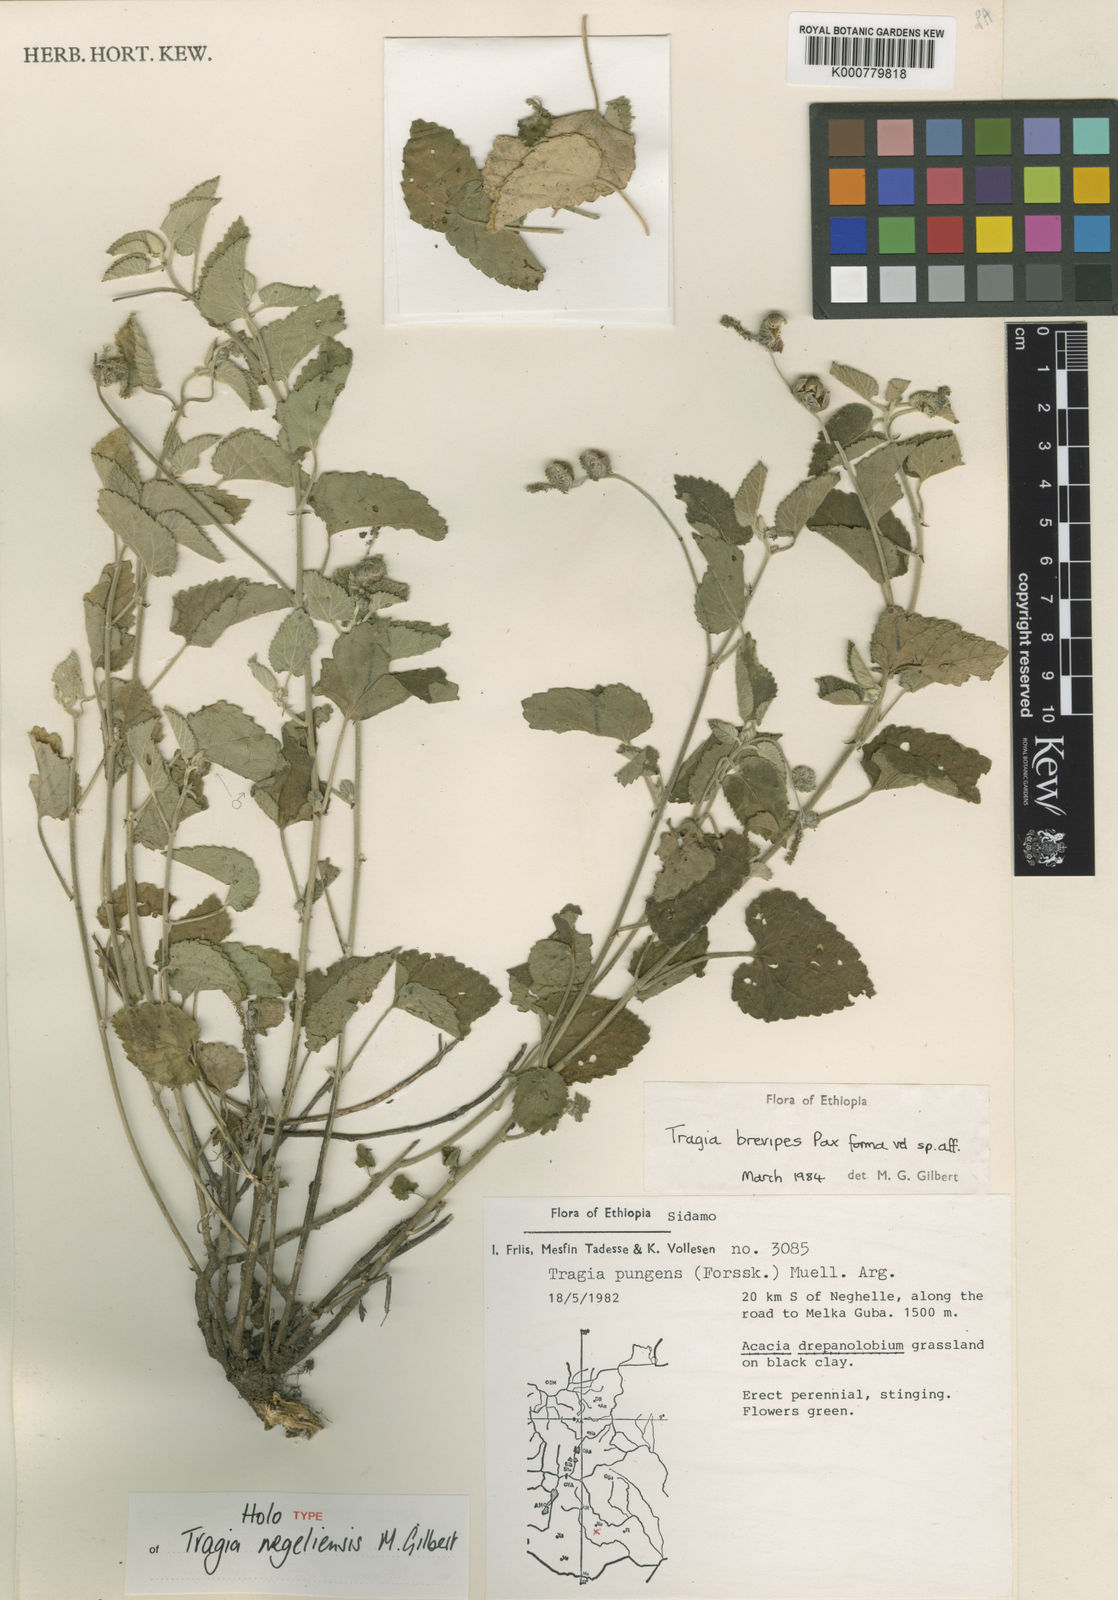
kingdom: Plantae
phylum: Tracheophyta
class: Magnoliopsida
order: Malpighiales
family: Euphorbiaceae
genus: Tragia
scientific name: Tragia negeliensis
